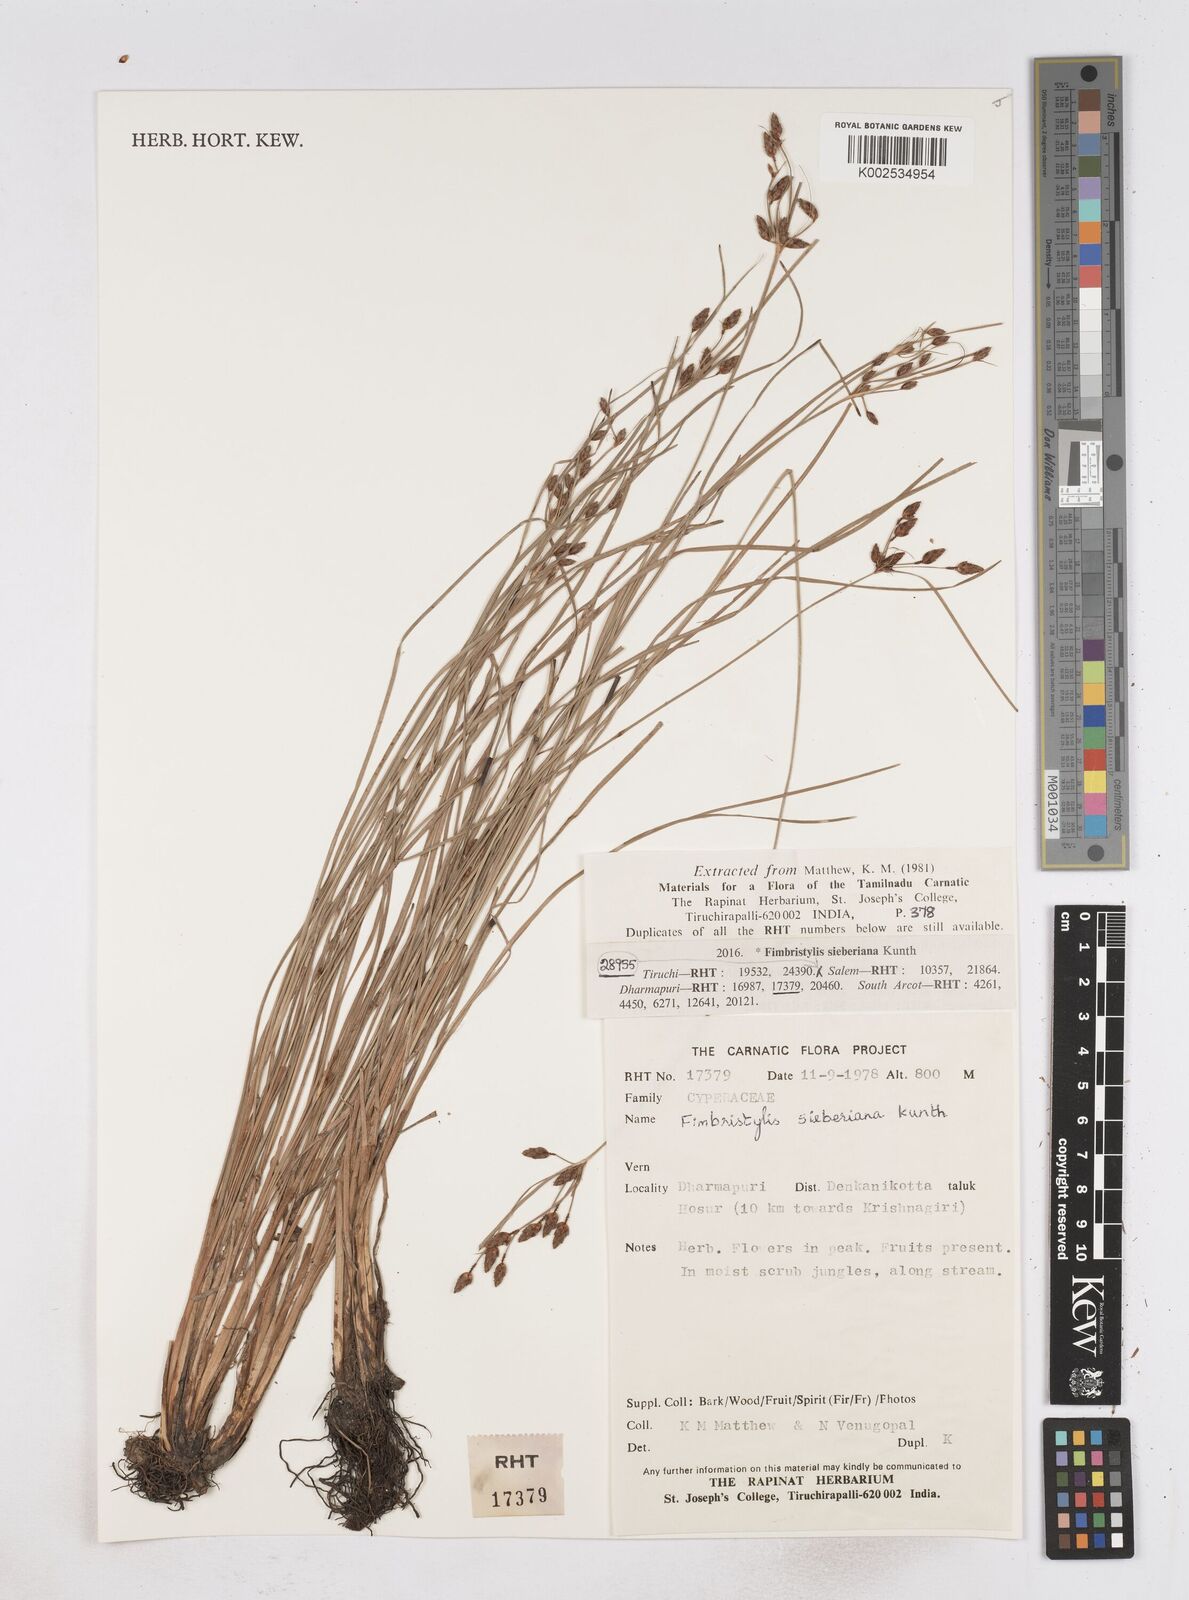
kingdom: Plantae
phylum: Tracheophyta
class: Liliopsida
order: Poales
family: Cyperaceae
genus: Fimbristylis
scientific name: Fimbristylis ferruginea
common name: West indian fimbry
